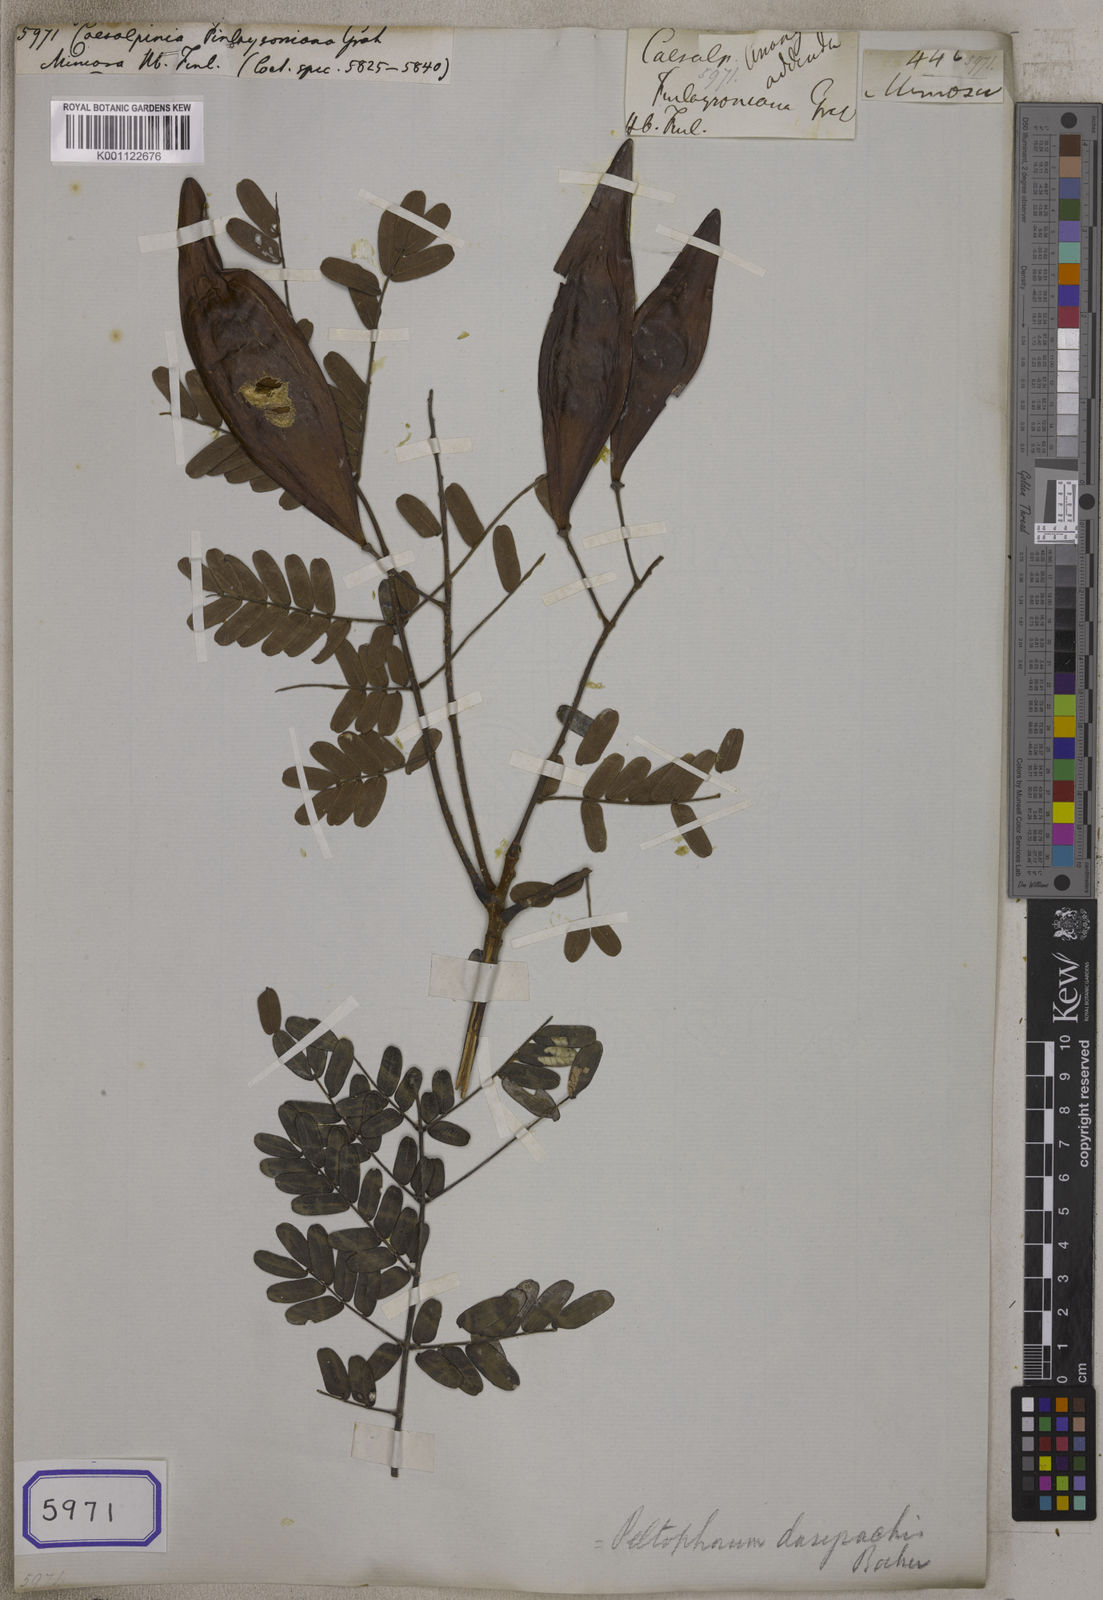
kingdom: Plantae
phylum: Tracheophyta
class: Magnoliopsida
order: Fabales
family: Fabaceae
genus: Peltophorum
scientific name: Peltophorum dasyrhachis
